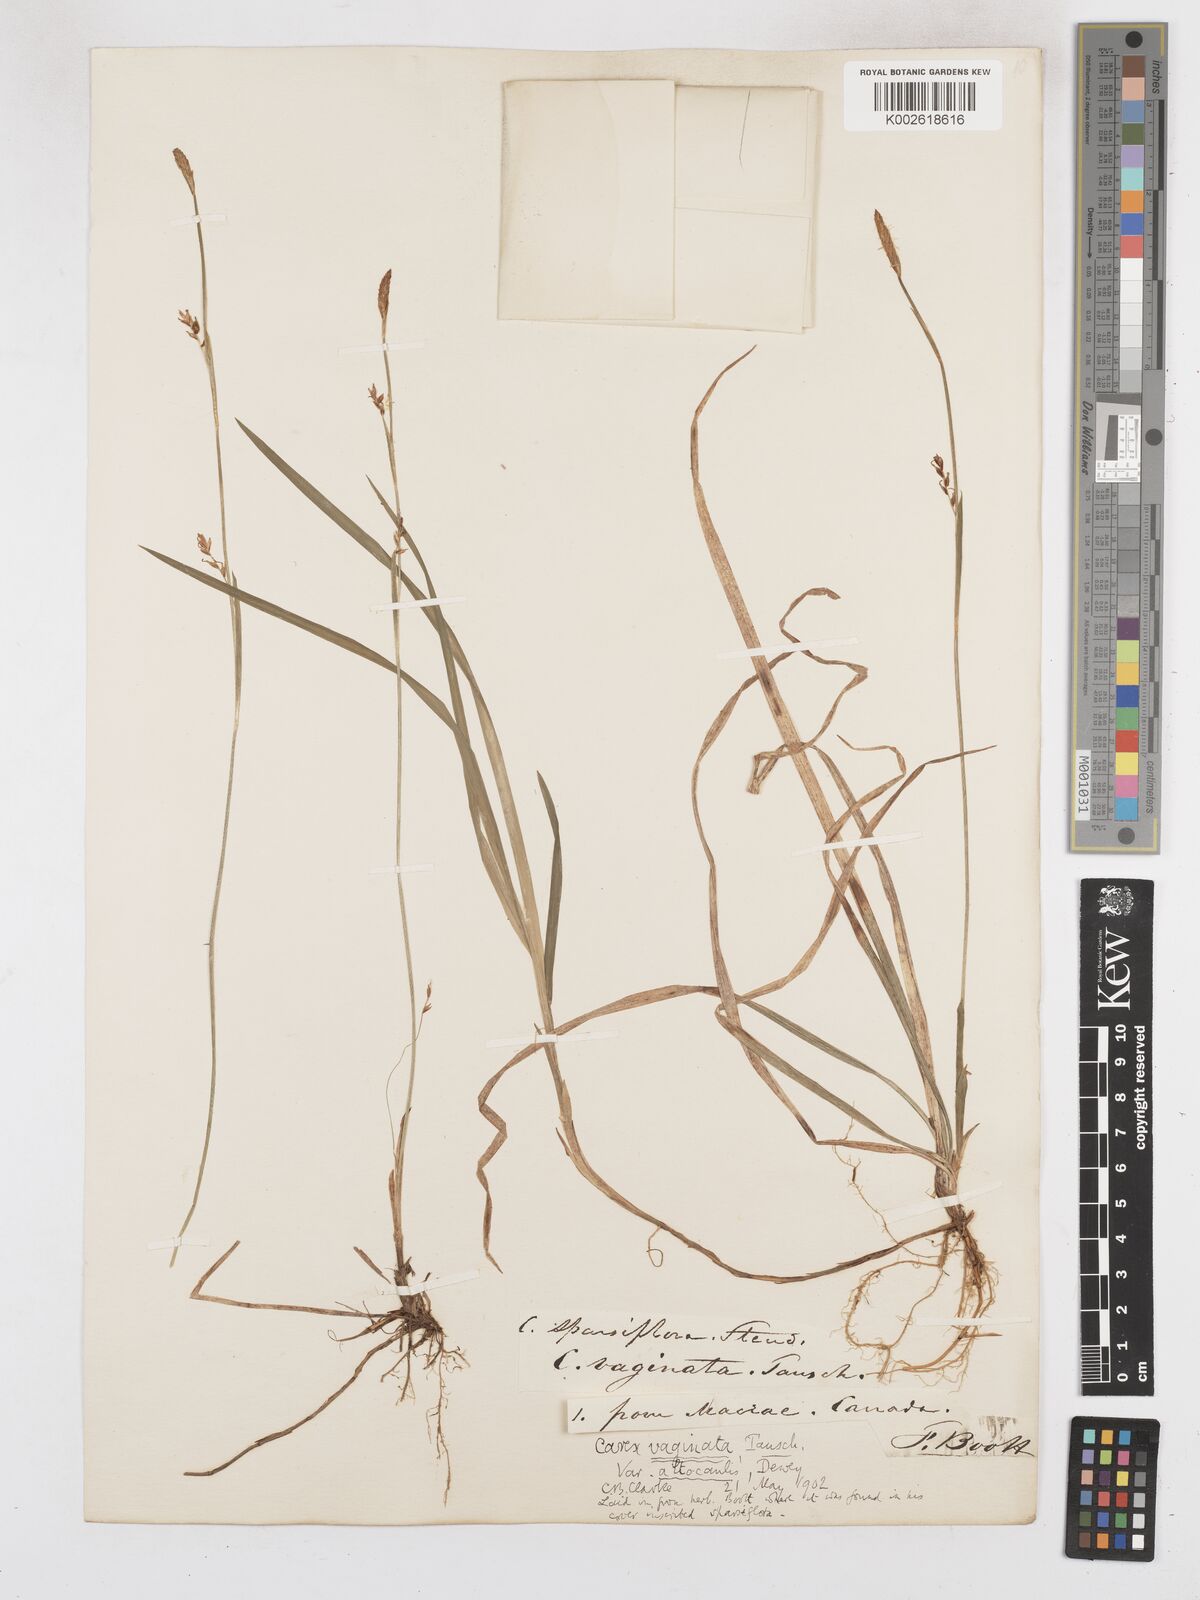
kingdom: Plantae
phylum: Tracheophyta
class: Liliopsida
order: Poales
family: Cyperaceae
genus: Carex
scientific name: Carex vaginata
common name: Sheathed sedge
